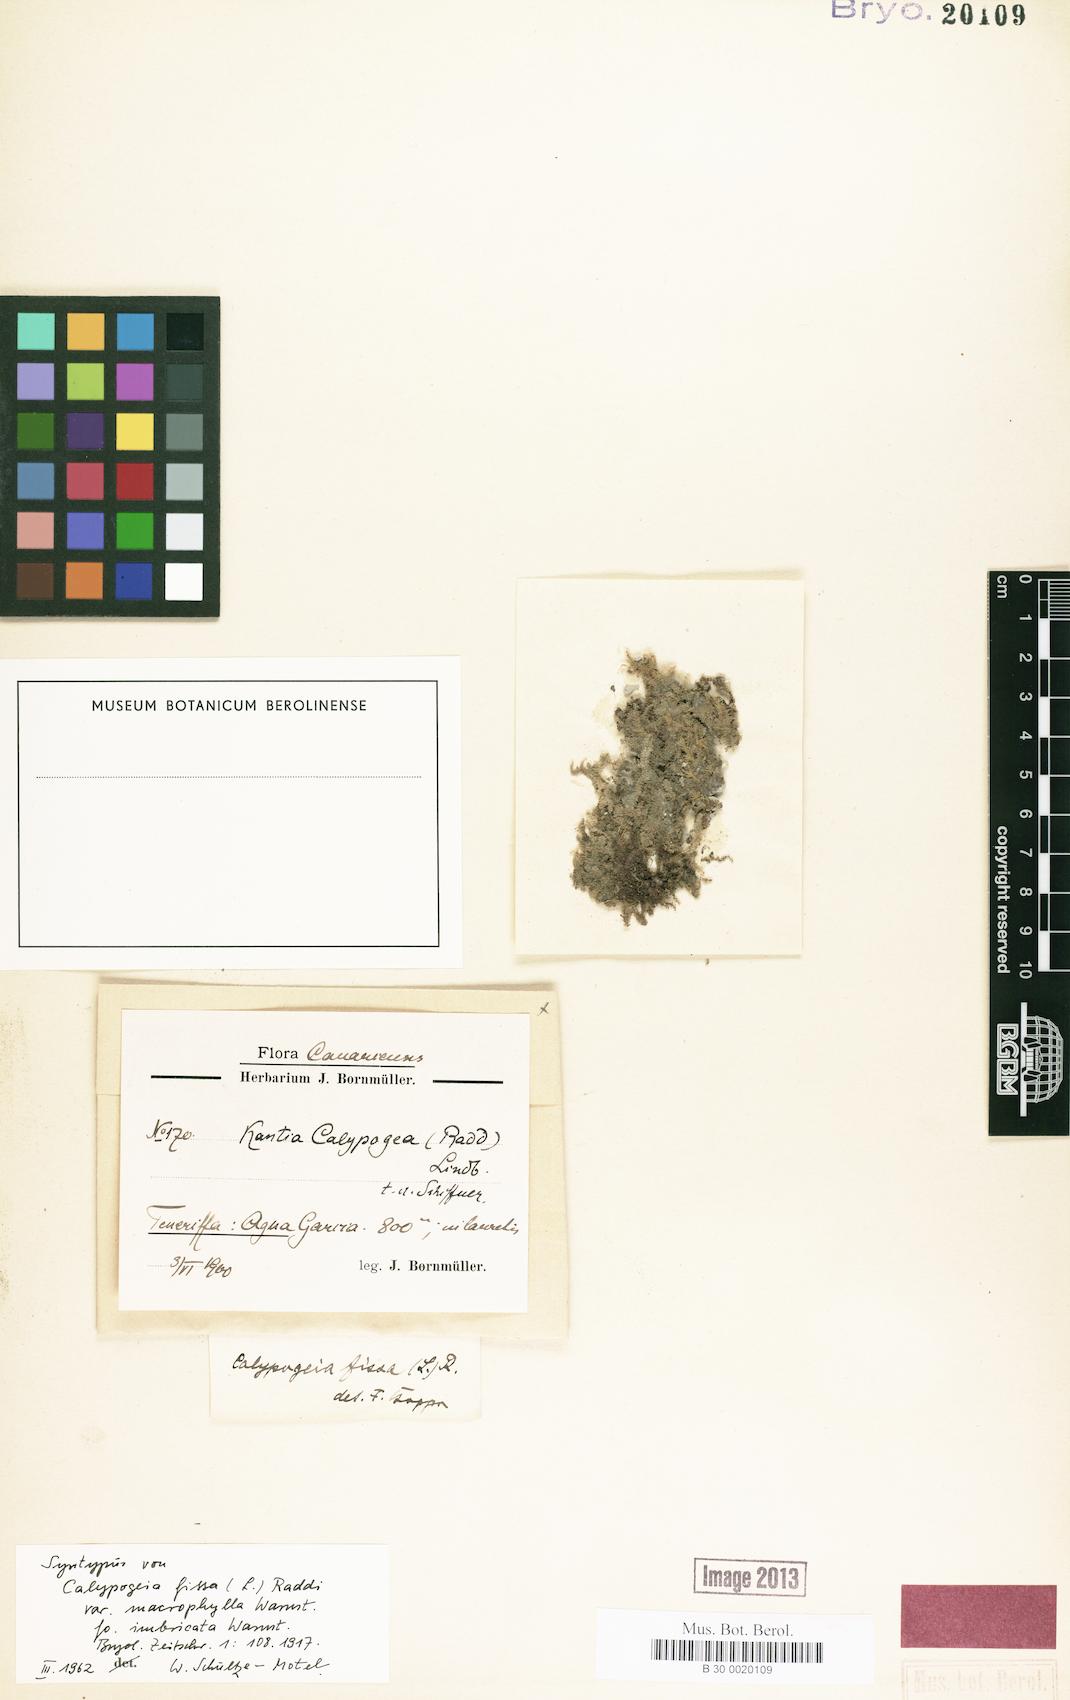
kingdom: Plantae
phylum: Marchantiophyta
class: Jungermanniopsida
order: Jungermanniales
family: Calypogeiaceae
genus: Calypogeia
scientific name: Calypogeia fissa
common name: Common pouchwort
